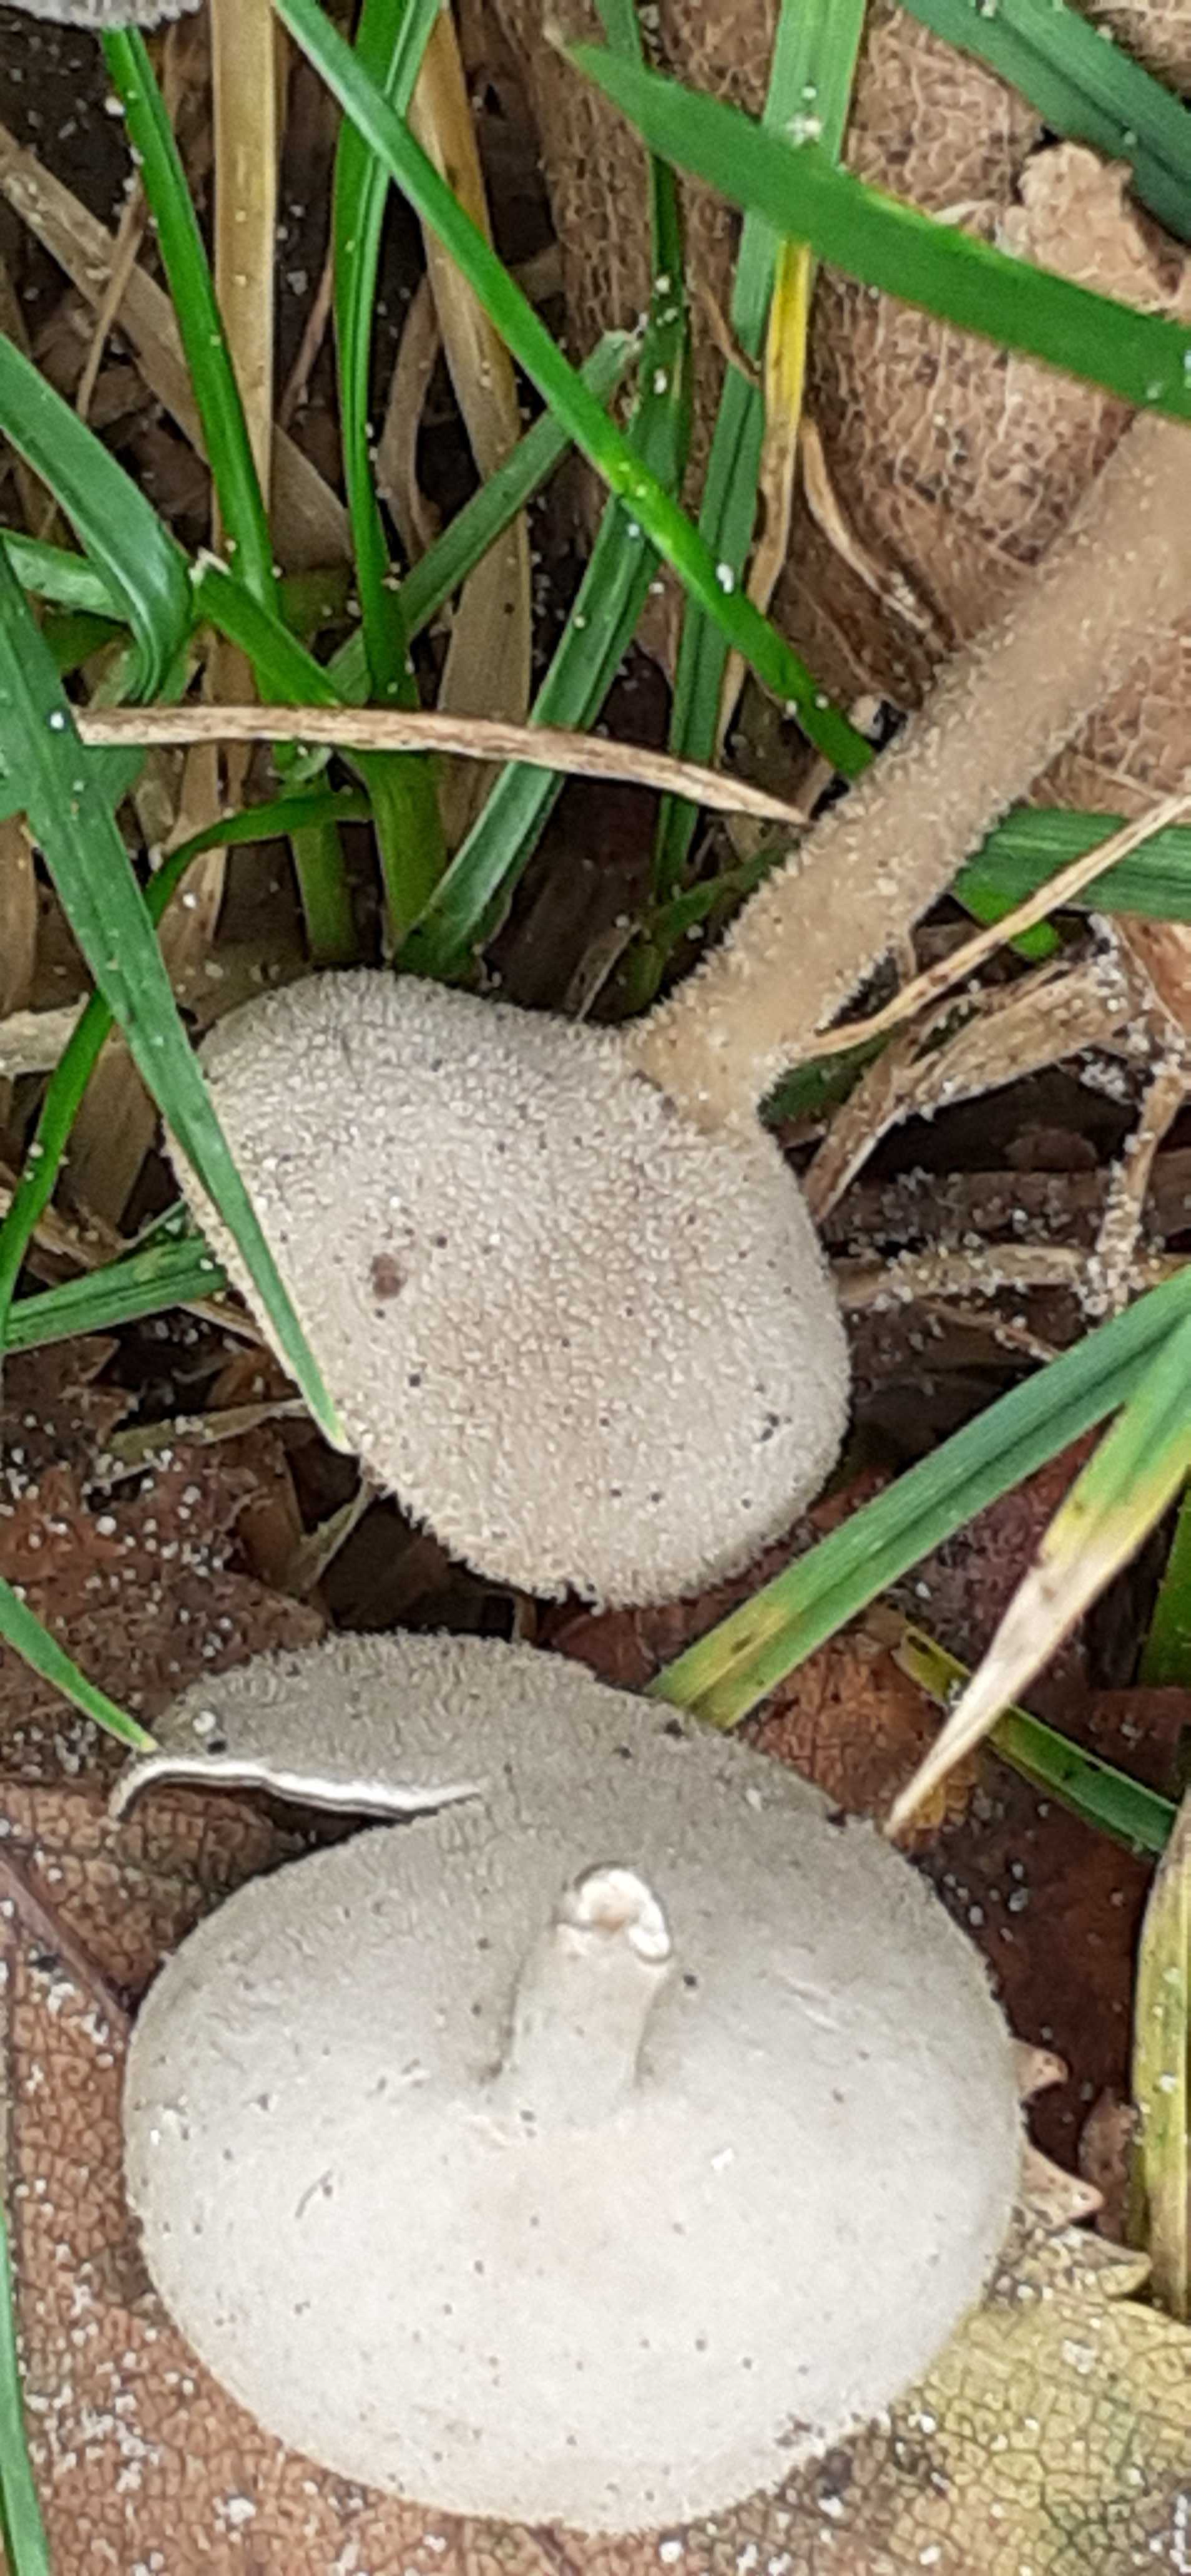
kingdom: Fungi
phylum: Ascomycota
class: Pezizomycetes
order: Pezizales
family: Helvellaceae
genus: Helvella
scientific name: Helvella
